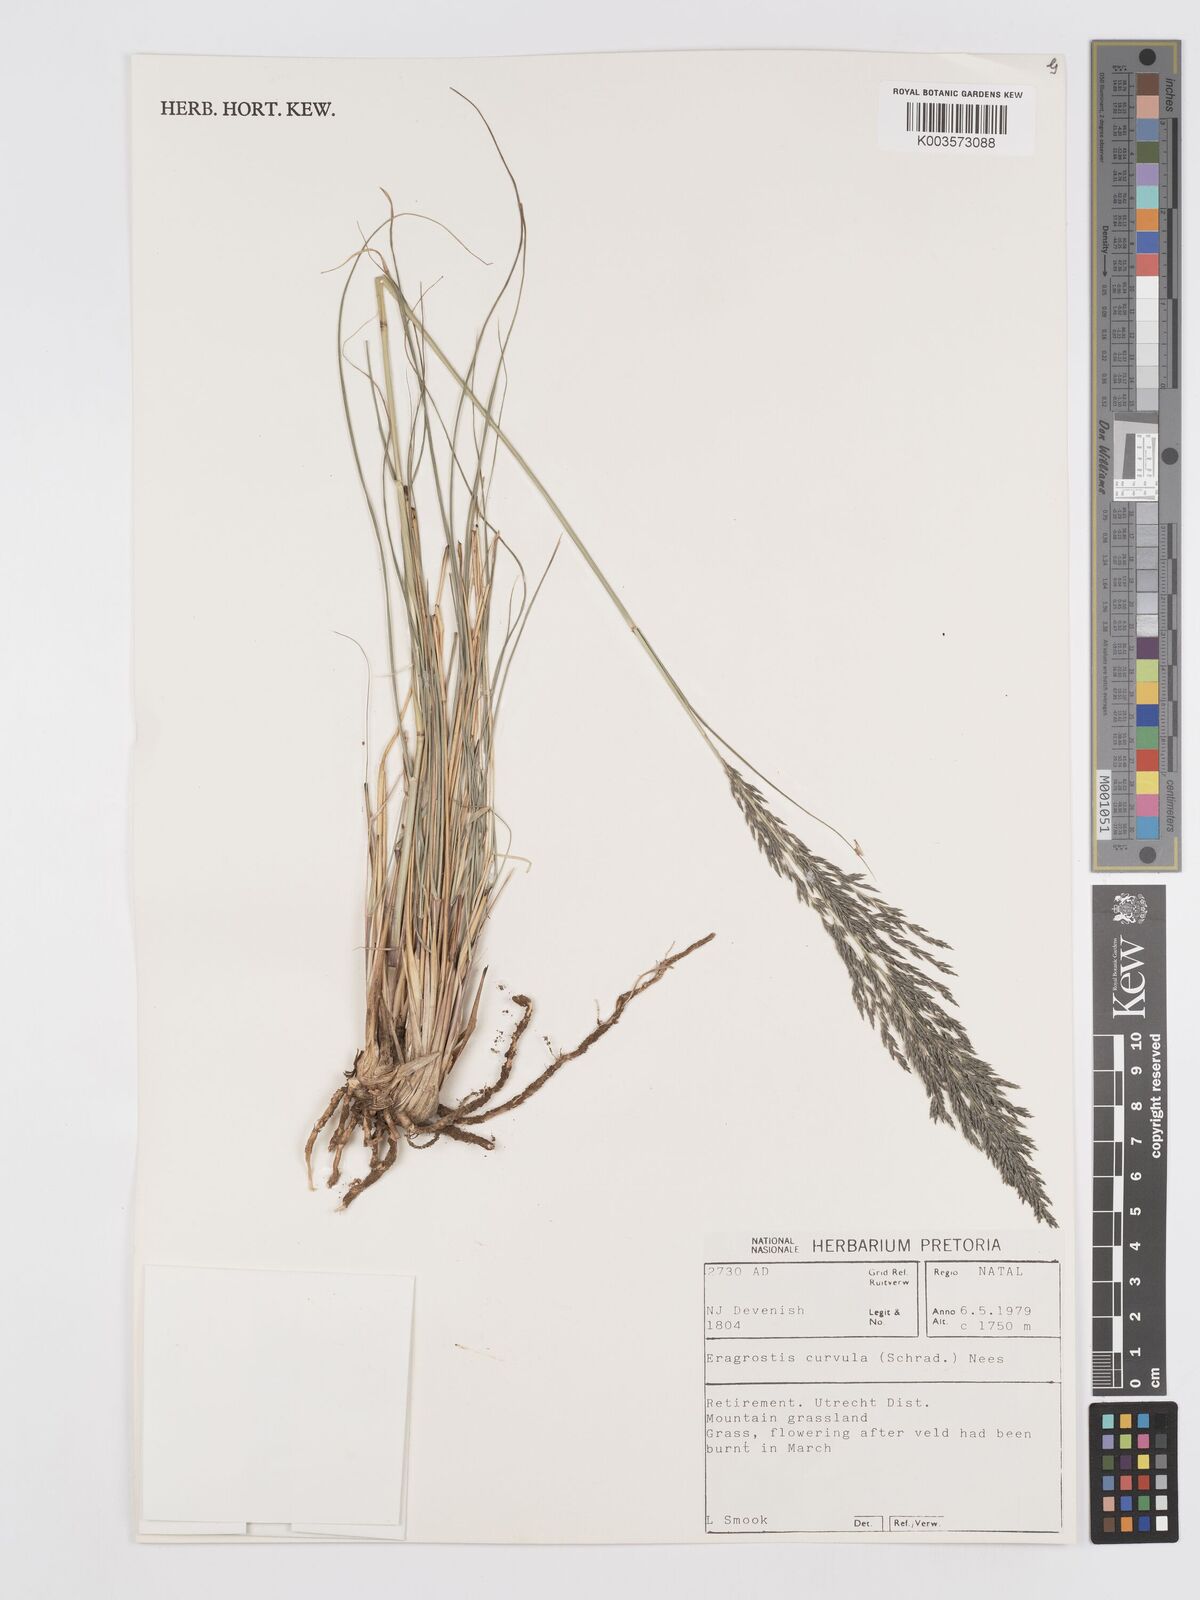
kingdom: Plantae
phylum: Tracheophyta
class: Liliopsida
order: Poales
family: Poaceae
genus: Eragrostis
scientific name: Eragrostis curvula
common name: African love-grass
